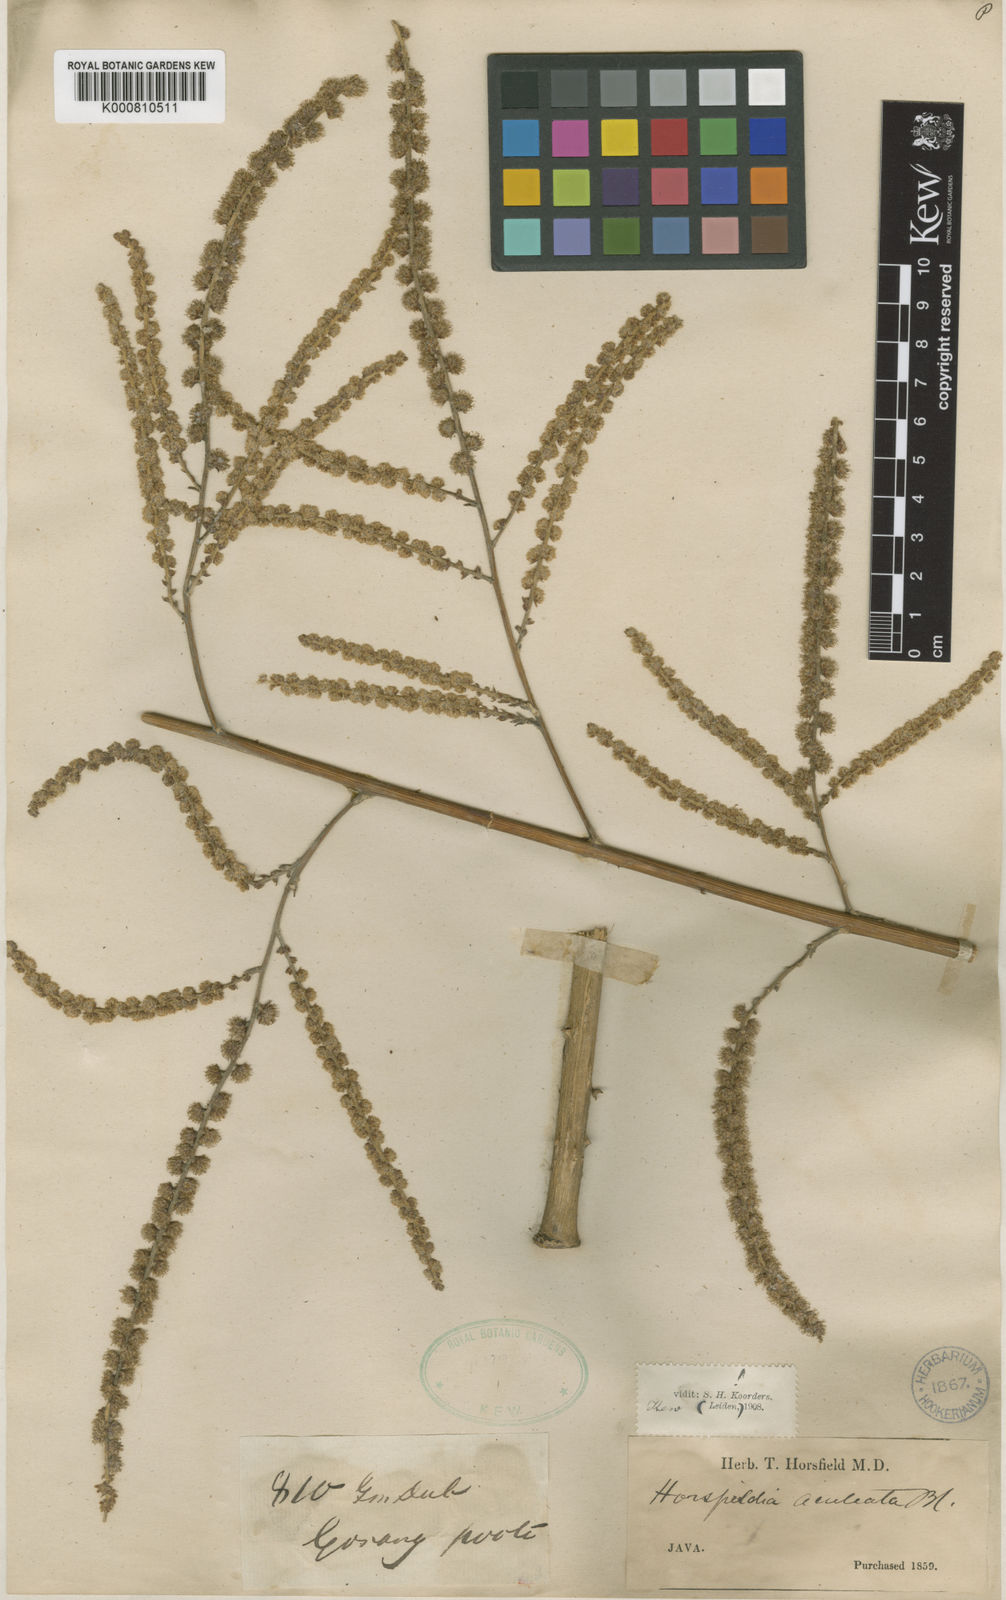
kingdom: Plantae
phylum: Tracheophyta
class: Magnoliopsida
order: Apiales
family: Araliaceae
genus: Harmsiopanax
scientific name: Harmsiopanax aculeatus
